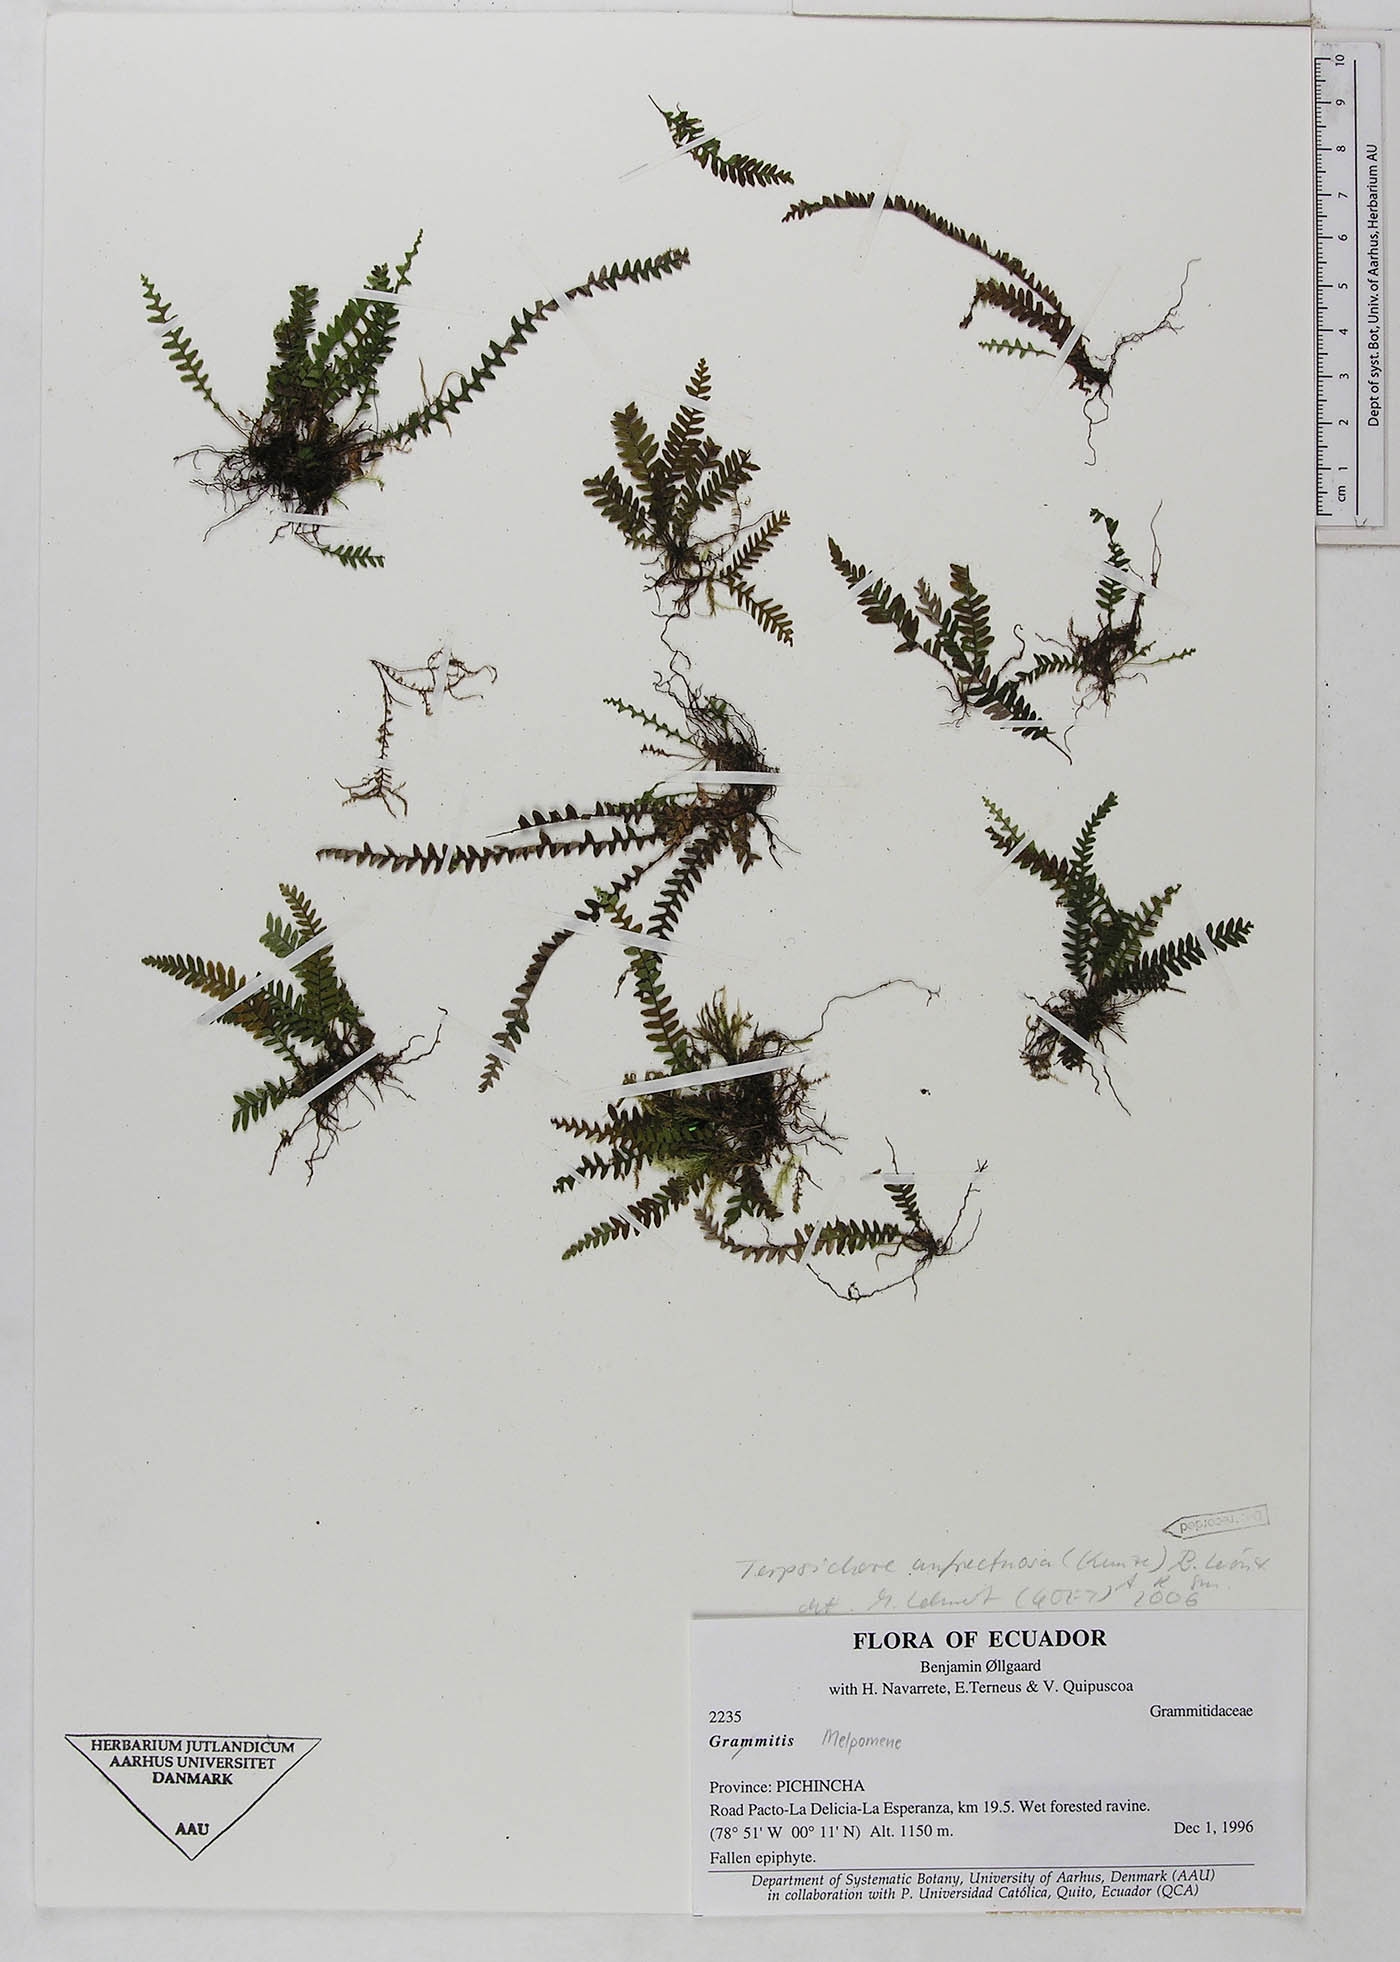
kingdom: Plantae
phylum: Tracheophyta
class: Polypodiopsida
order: Polypodiales
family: Polypodiaceae
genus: Ascogrammitis
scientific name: Ascogrammitis anfractuosa
